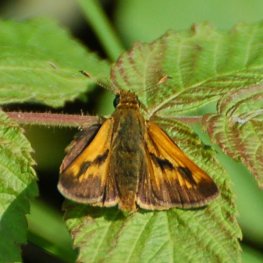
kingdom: Animalia
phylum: Arthropoda
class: Insecta
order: Lepidoptera
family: Hesperiidae
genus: Polites
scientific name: Polites
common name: Long Dash Skipper
